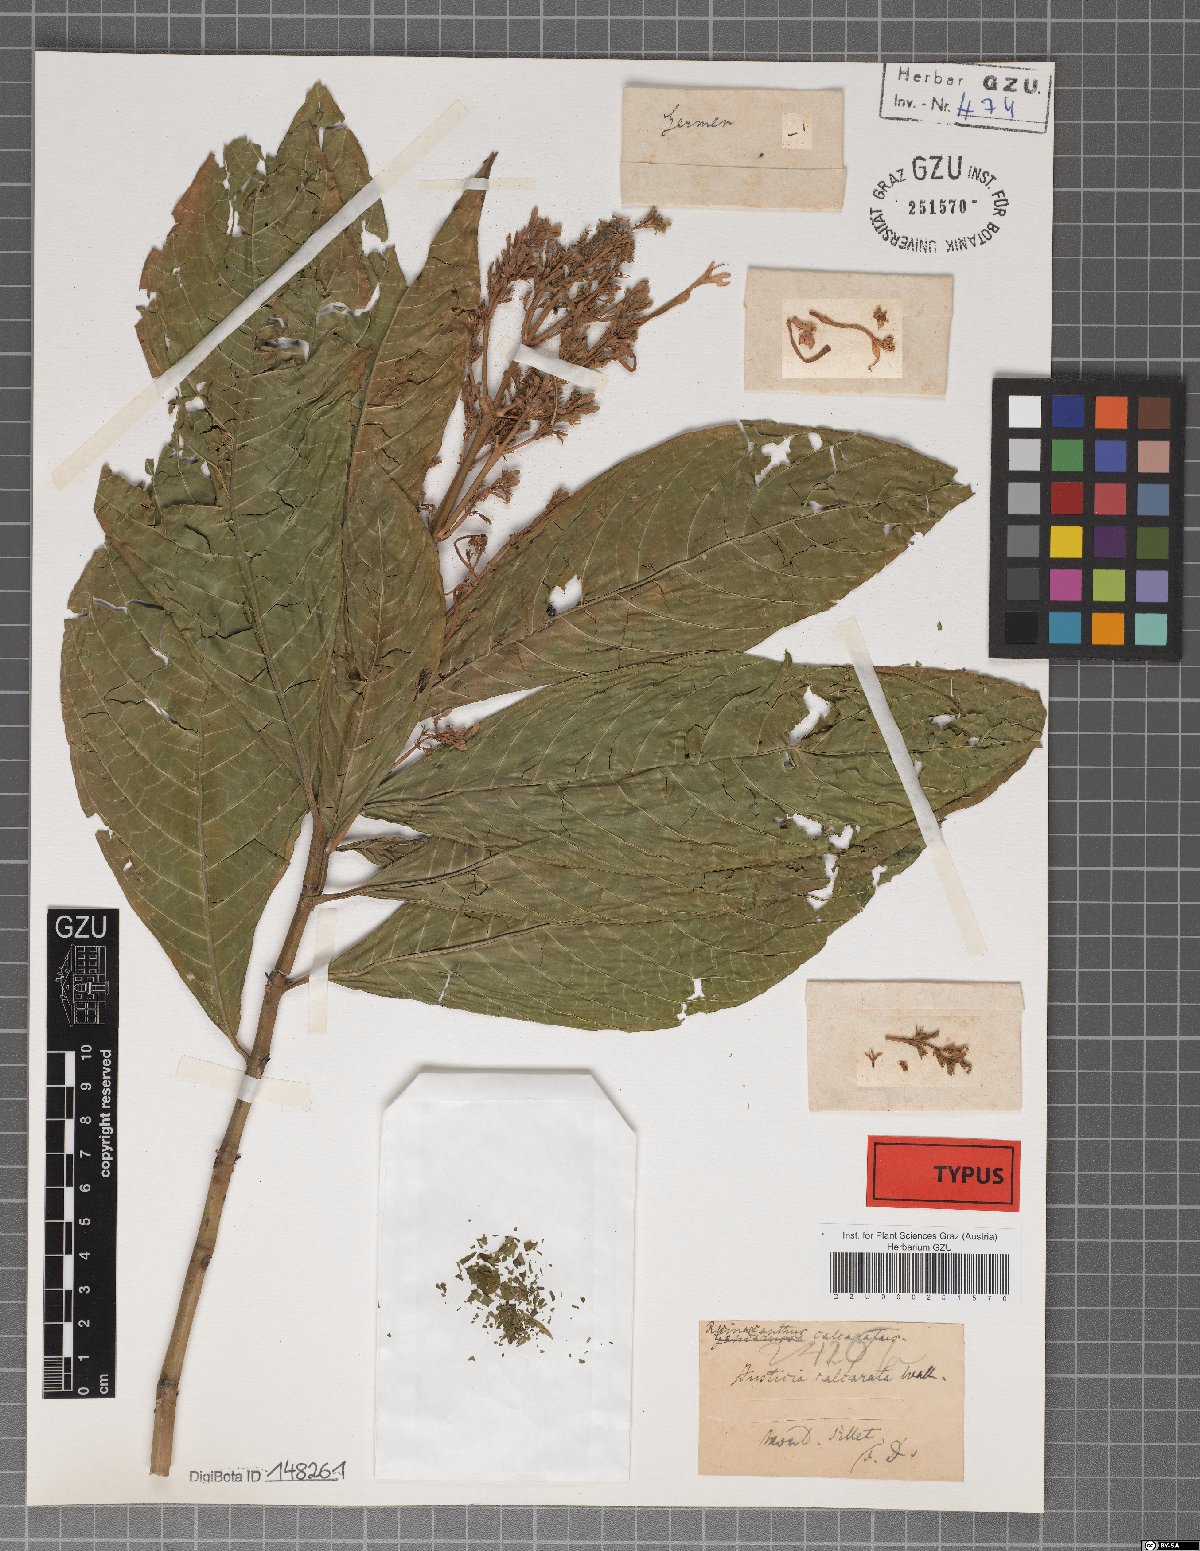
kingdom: Plantae
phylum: Tracheophyta
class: Magnoliopsida
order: Lamiales
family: Acanthaceae
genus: Rhinacanthus
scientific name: Rhinacanthus calcaratus
